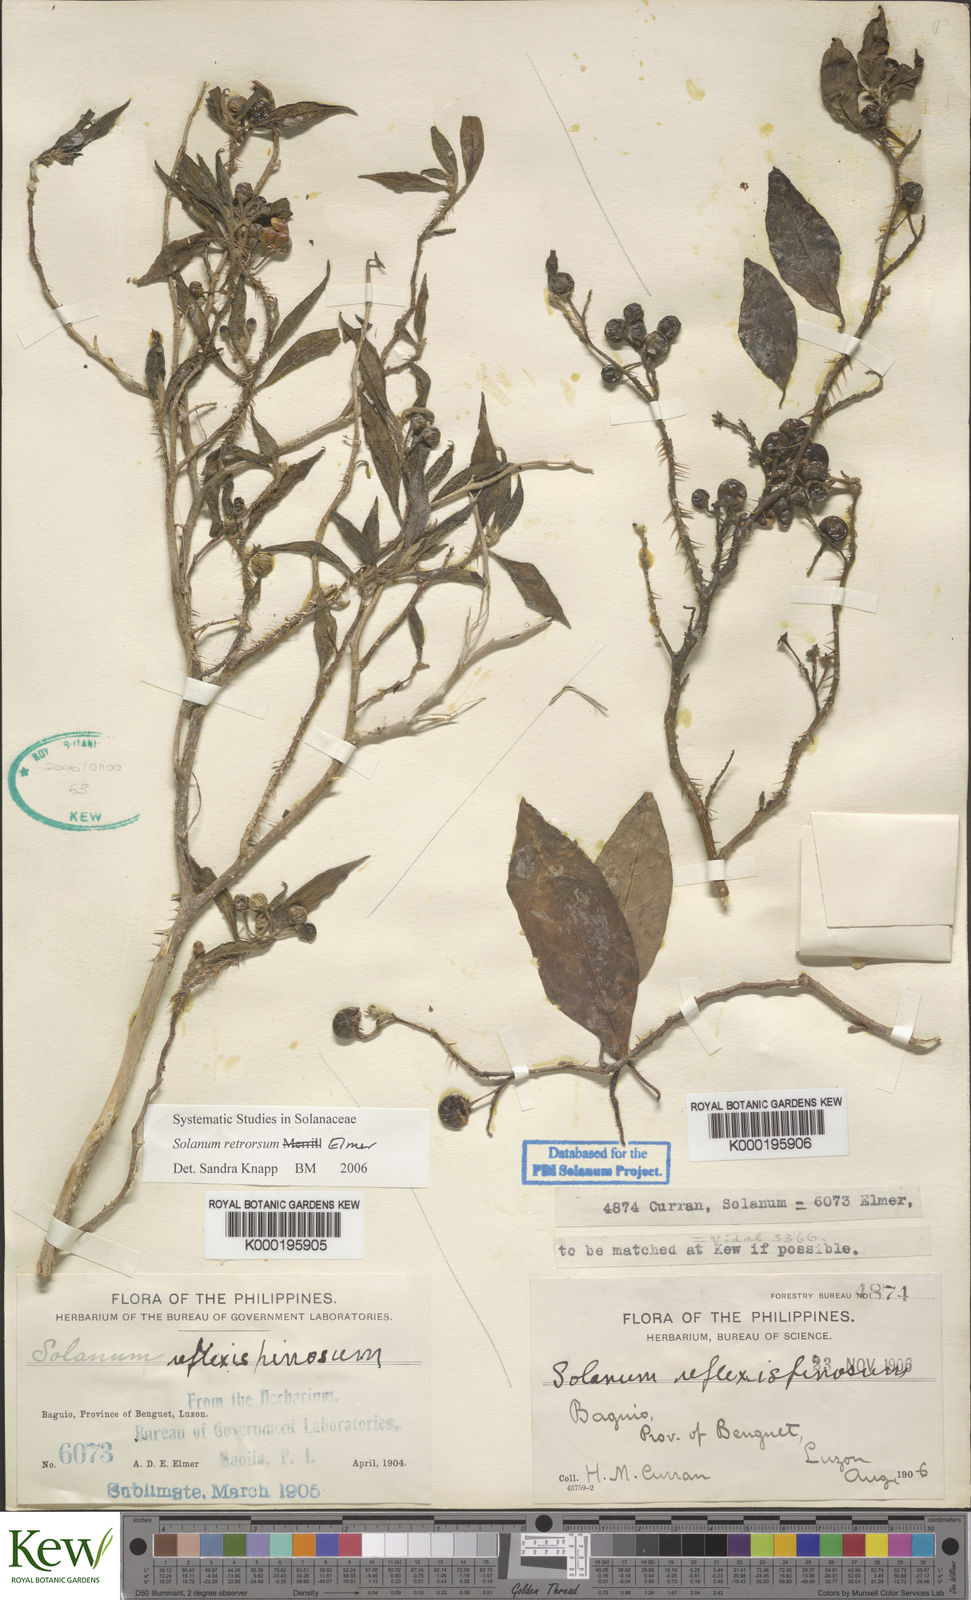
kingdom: Plantae
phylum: Tracheophyta
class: Magnoliopsida
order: Solanales
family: Solanaceae
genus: Solanum
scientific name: Solanum retrorsum
